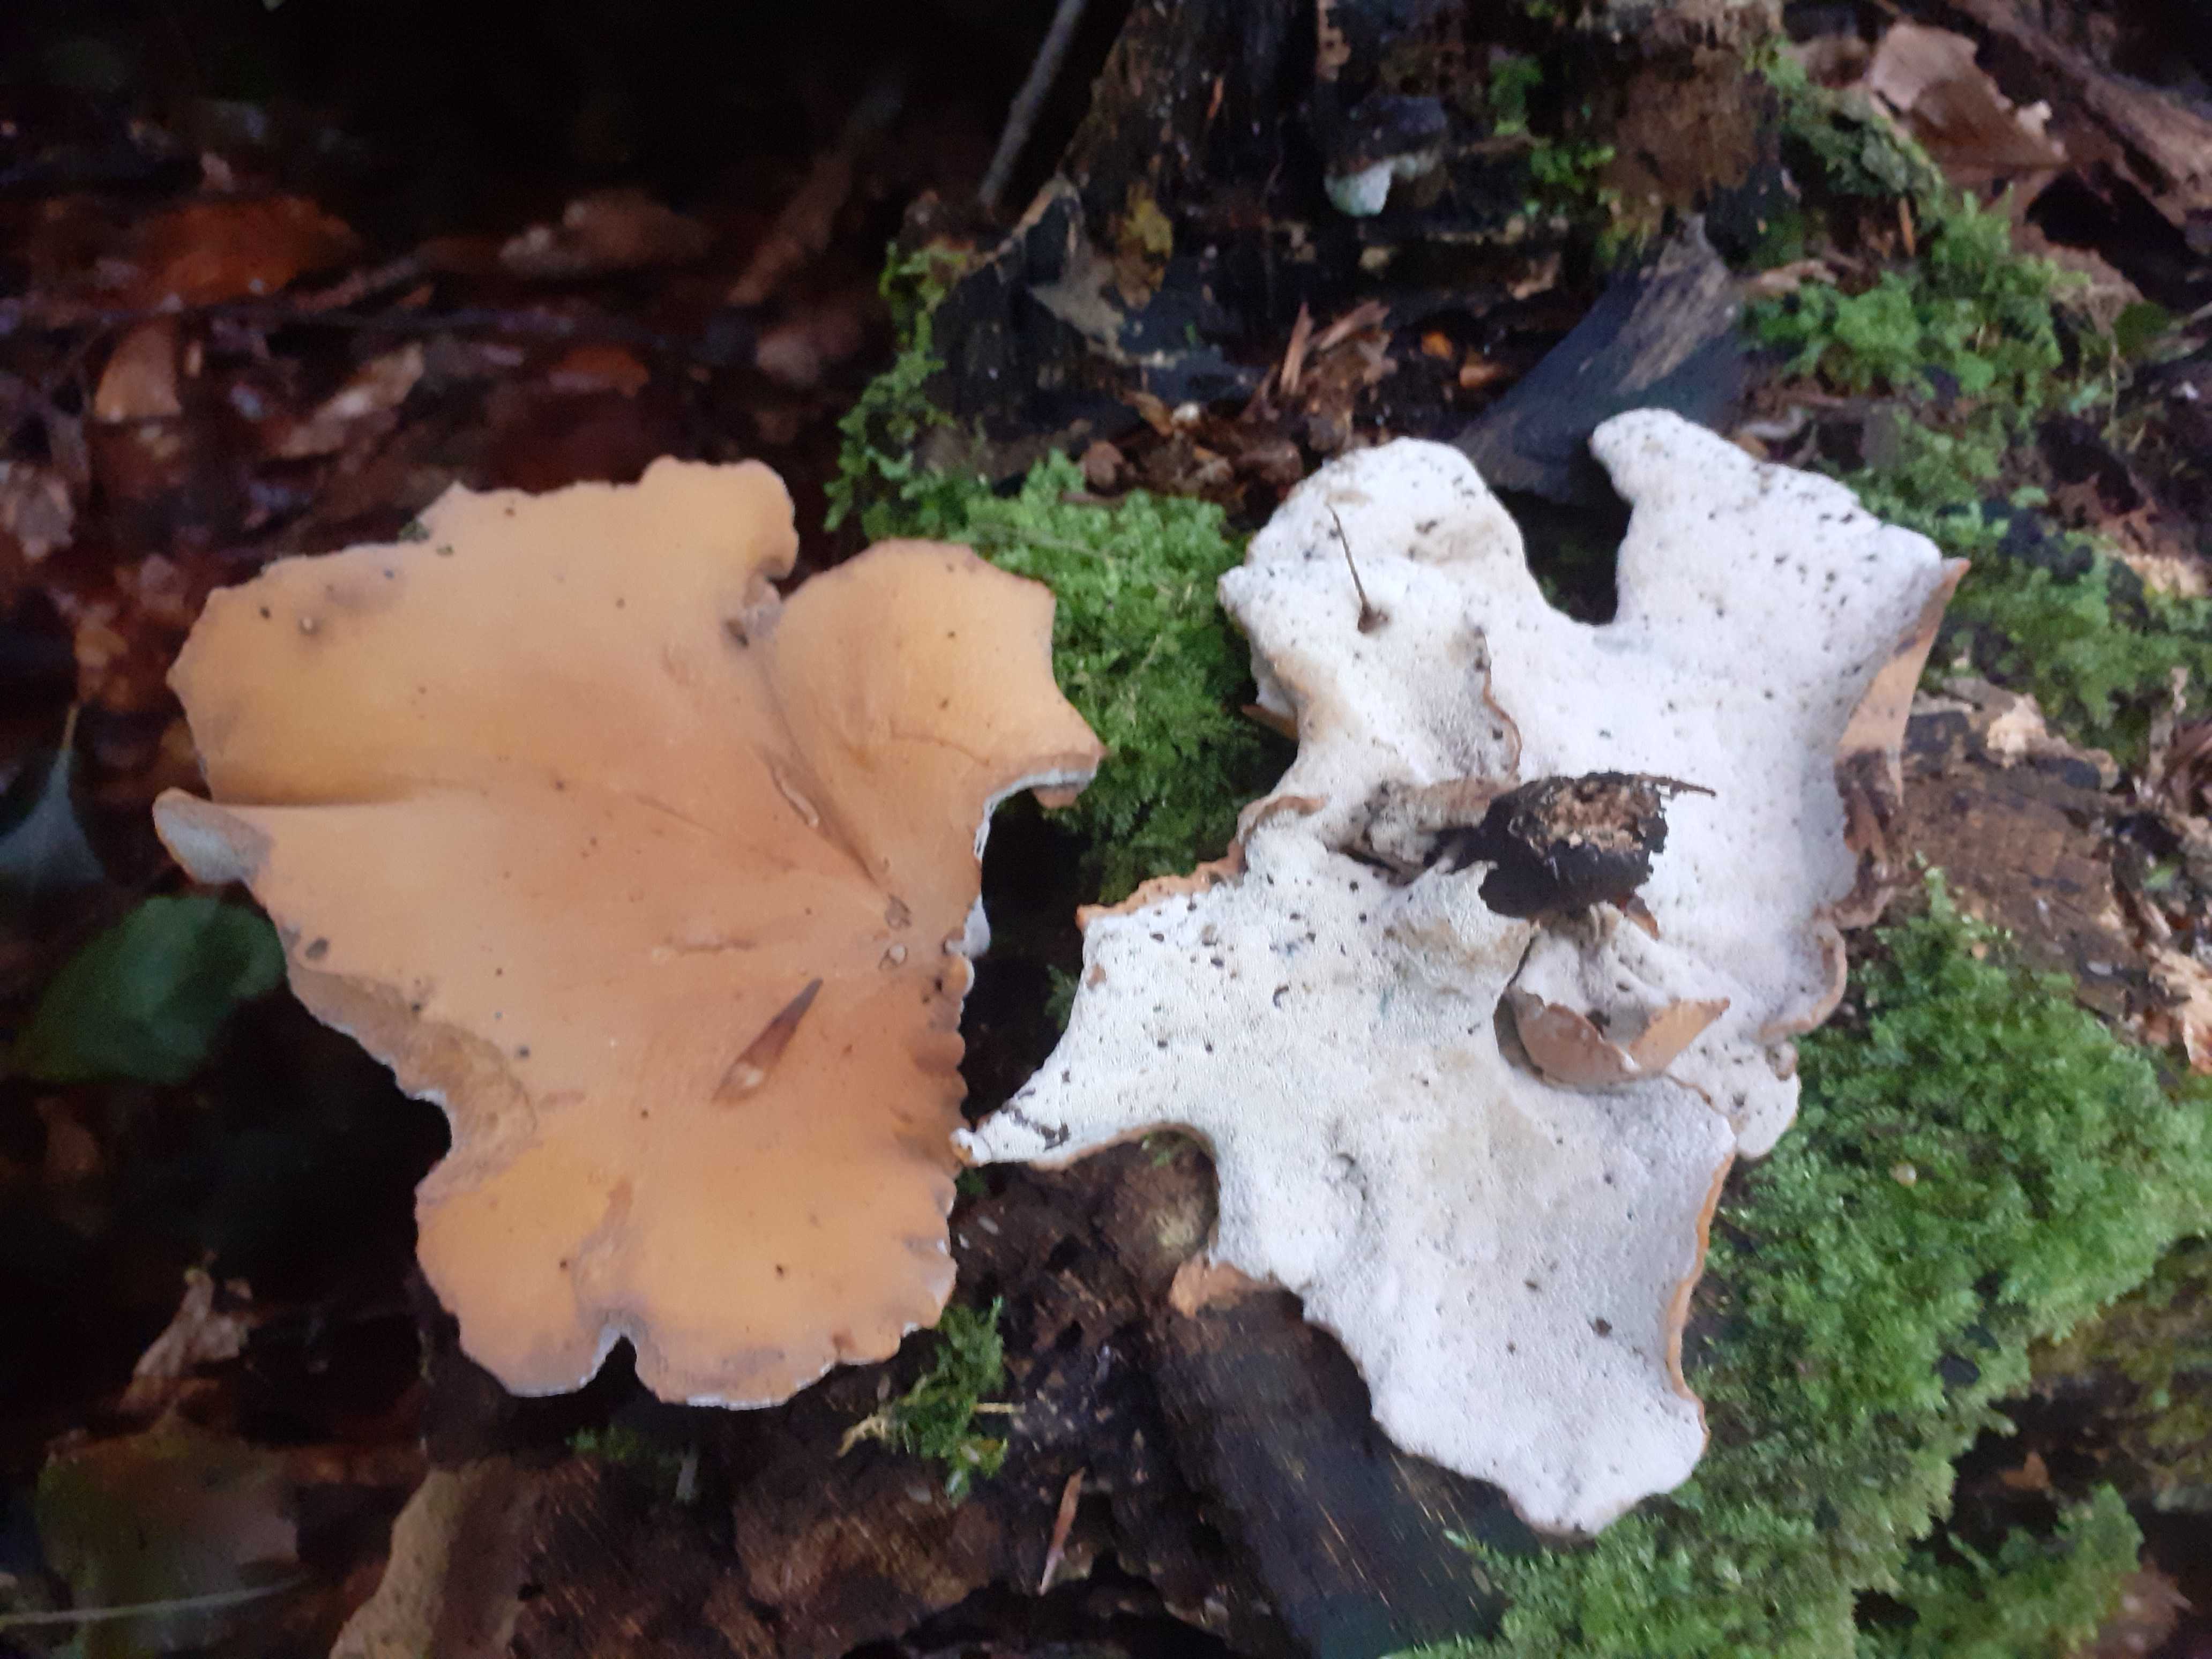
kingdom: Fungi
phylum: Basidiomycota
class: Agaricomycetes
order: Polyporales
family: Polyporaceae
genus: Cerioporus
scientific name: Cerioporus varius
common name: foranderlig stilkporesvamp
